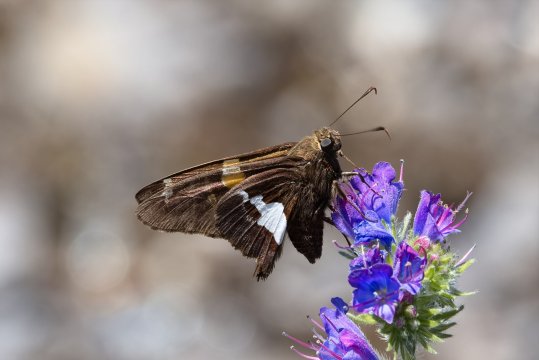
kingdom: Animalia
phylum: Arthropoda
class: Insecta
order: Lepidoptera
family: Hesperiidae
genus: Epargyreus
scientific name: Epargyreus clarus
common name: Silver-spotted Skipper
